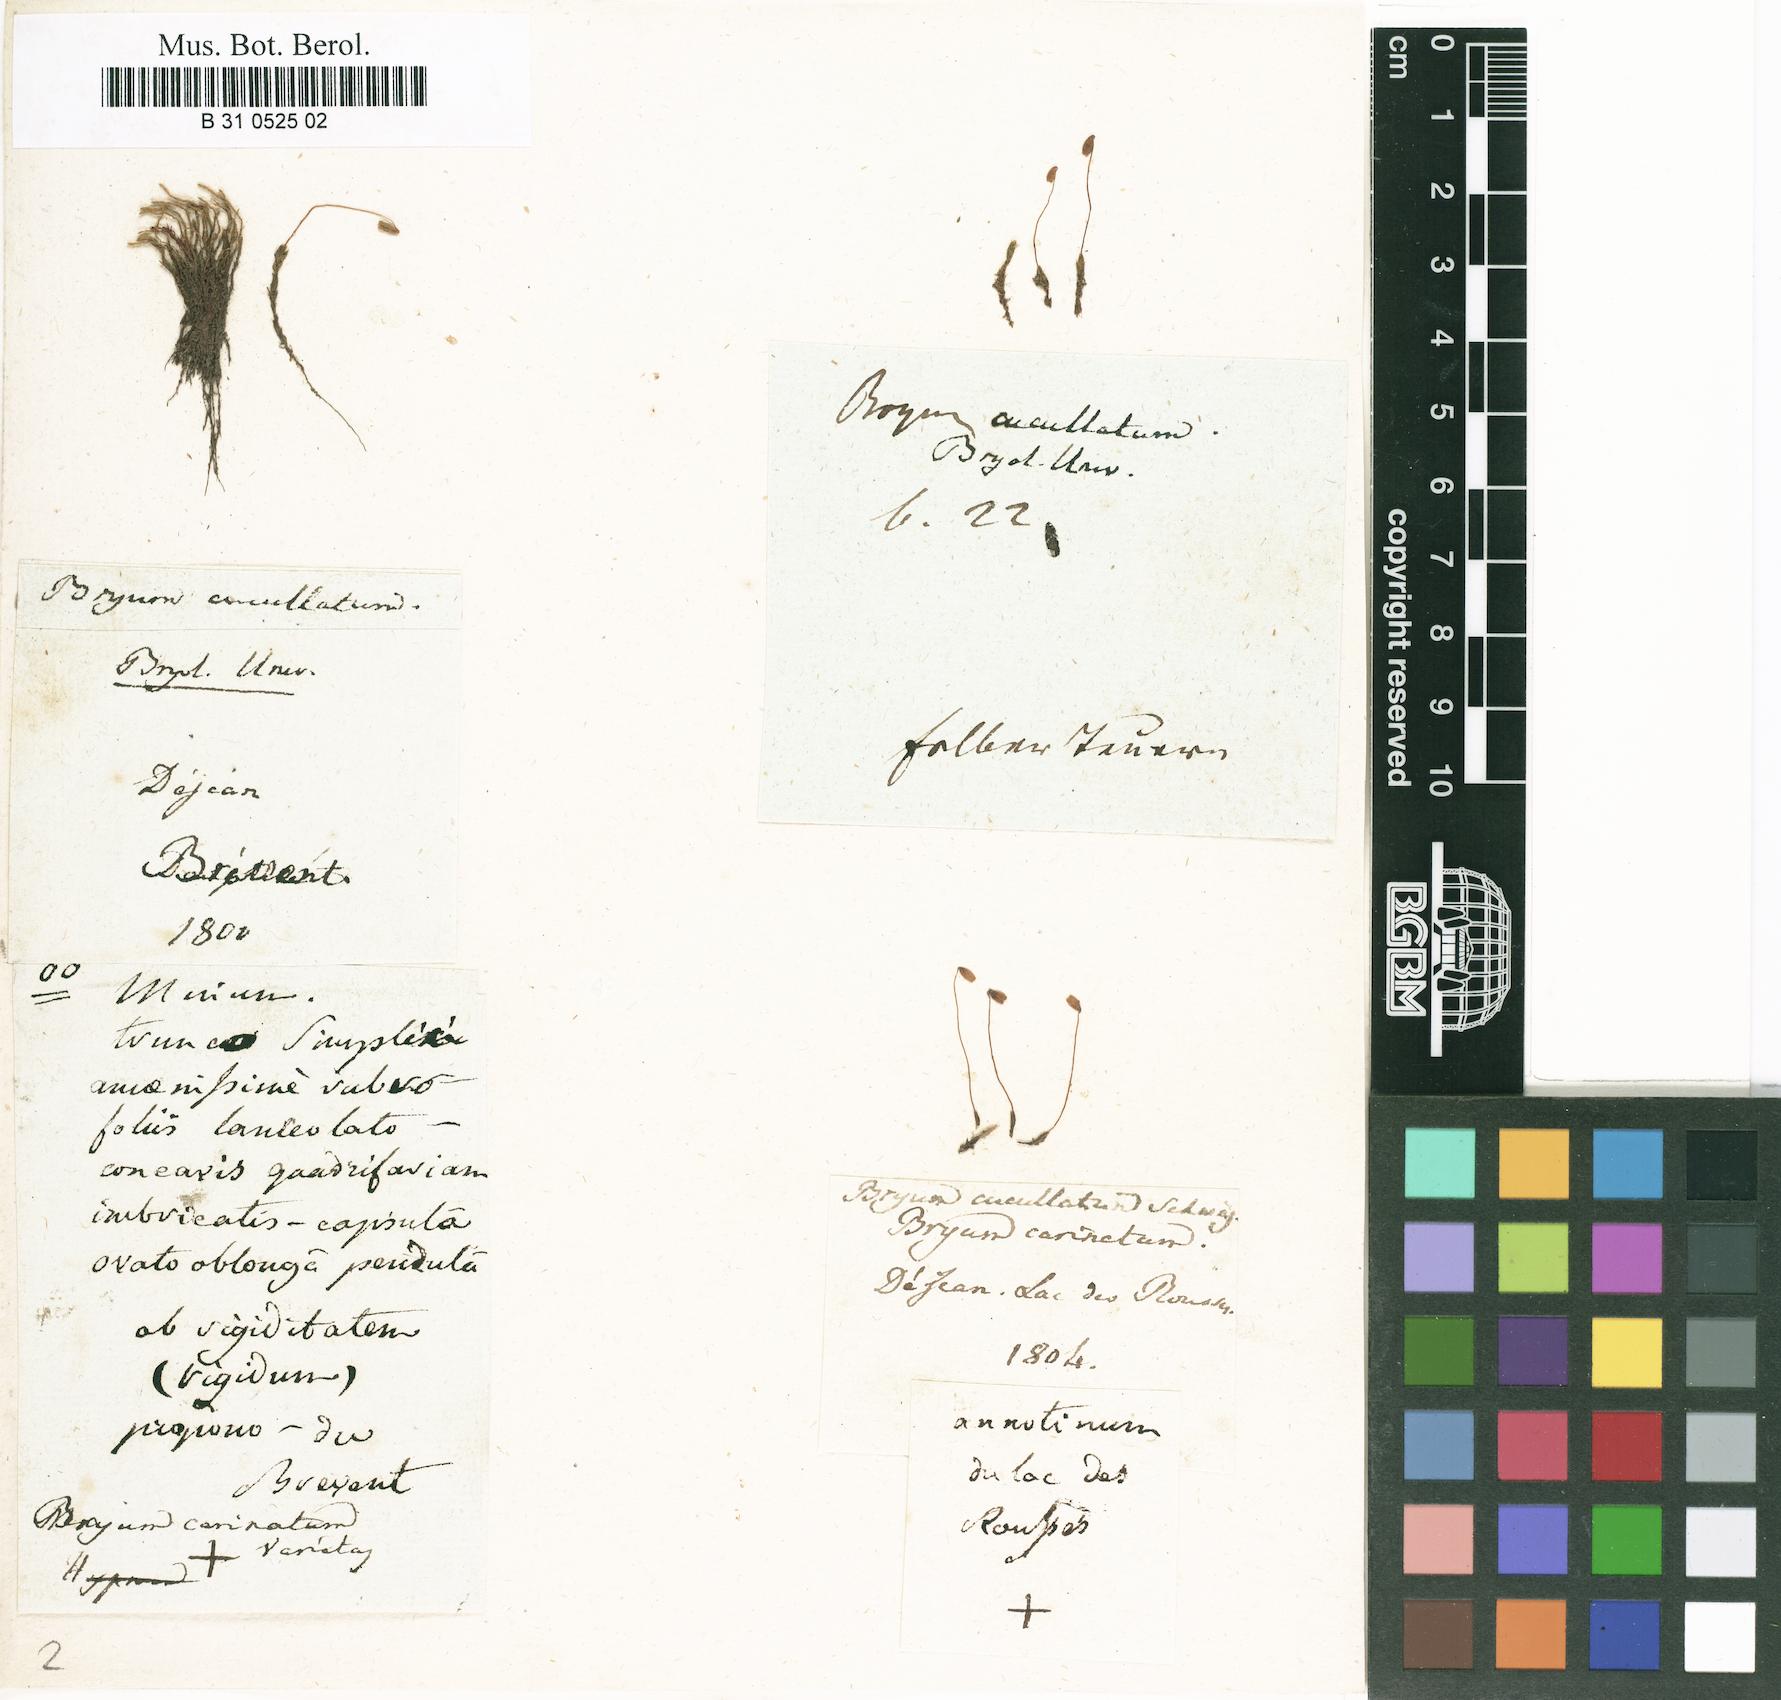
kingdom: Plantae
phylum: Bryophyta
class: Bryopsida
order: Bryales
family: Mniaceae
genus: Pohlia
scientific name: Pohlia obtusifolia
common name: Blunt nodding moss
